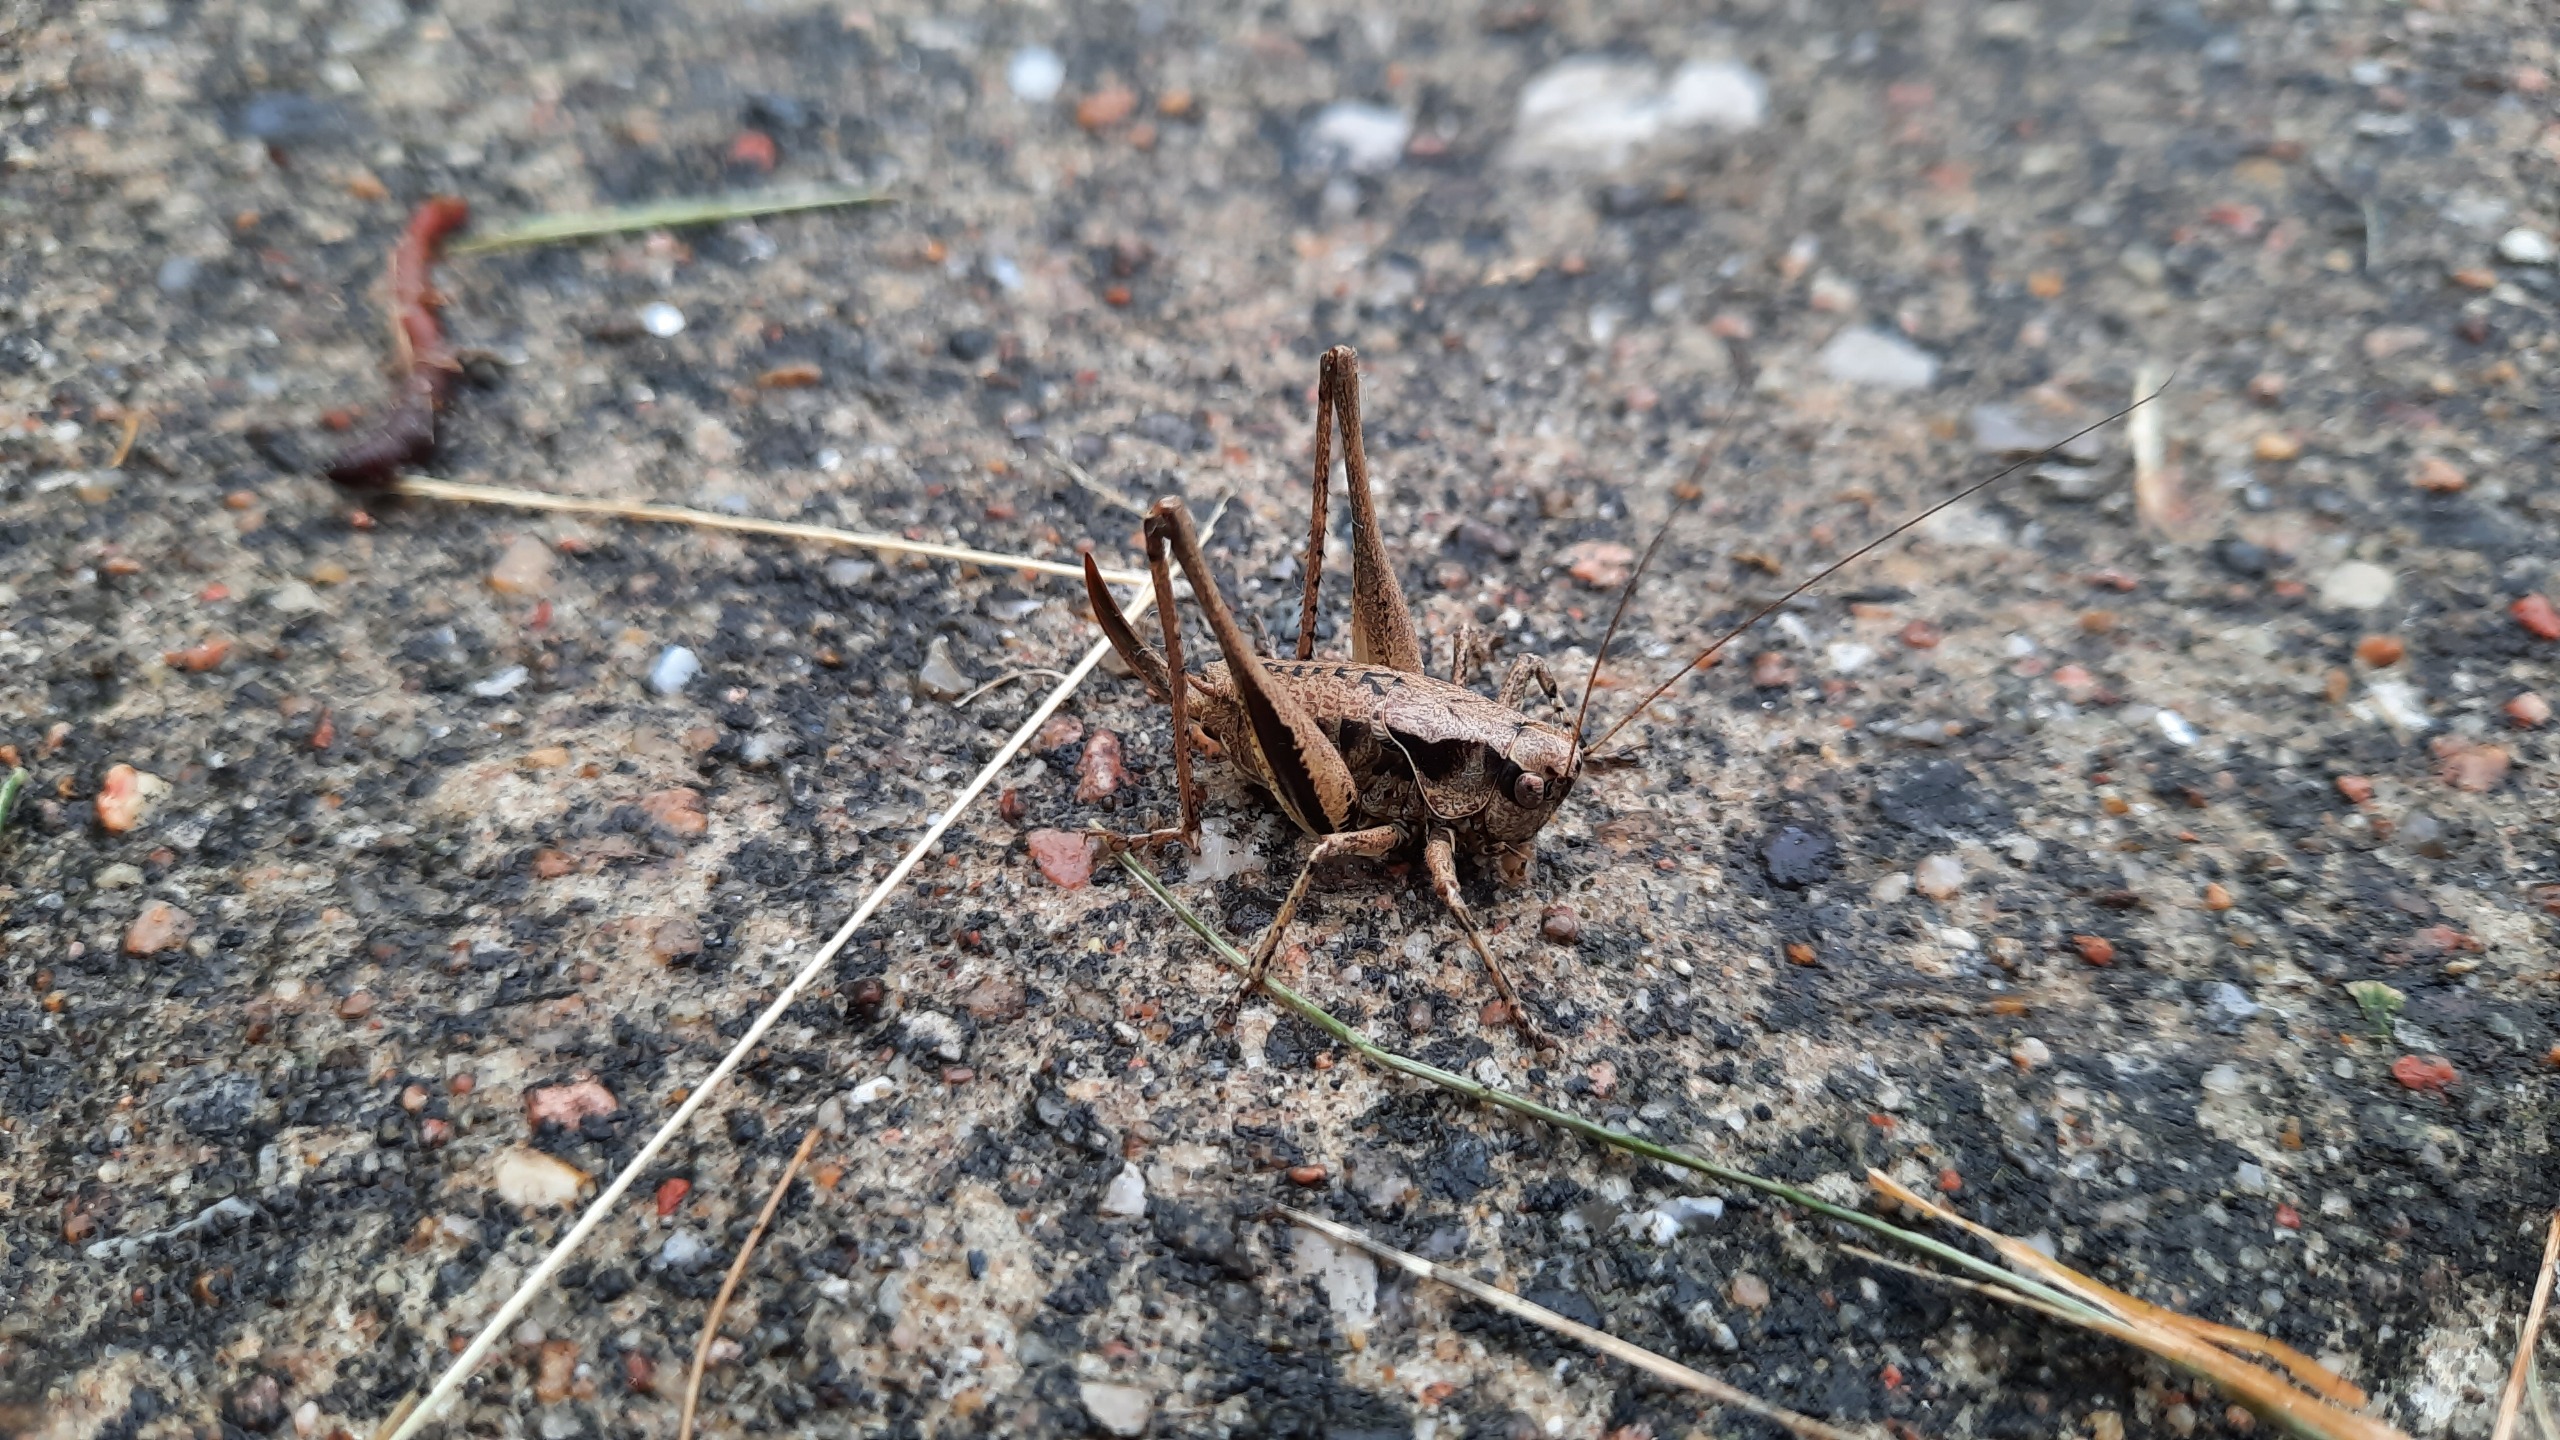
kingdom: Animalia
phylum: Arthropoda
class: Insecta
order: Orthoptera
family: Tettigoniidae
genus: Pholidoptera
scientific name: Pholidoptera griseoaptera
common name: Buskgræshoppe
